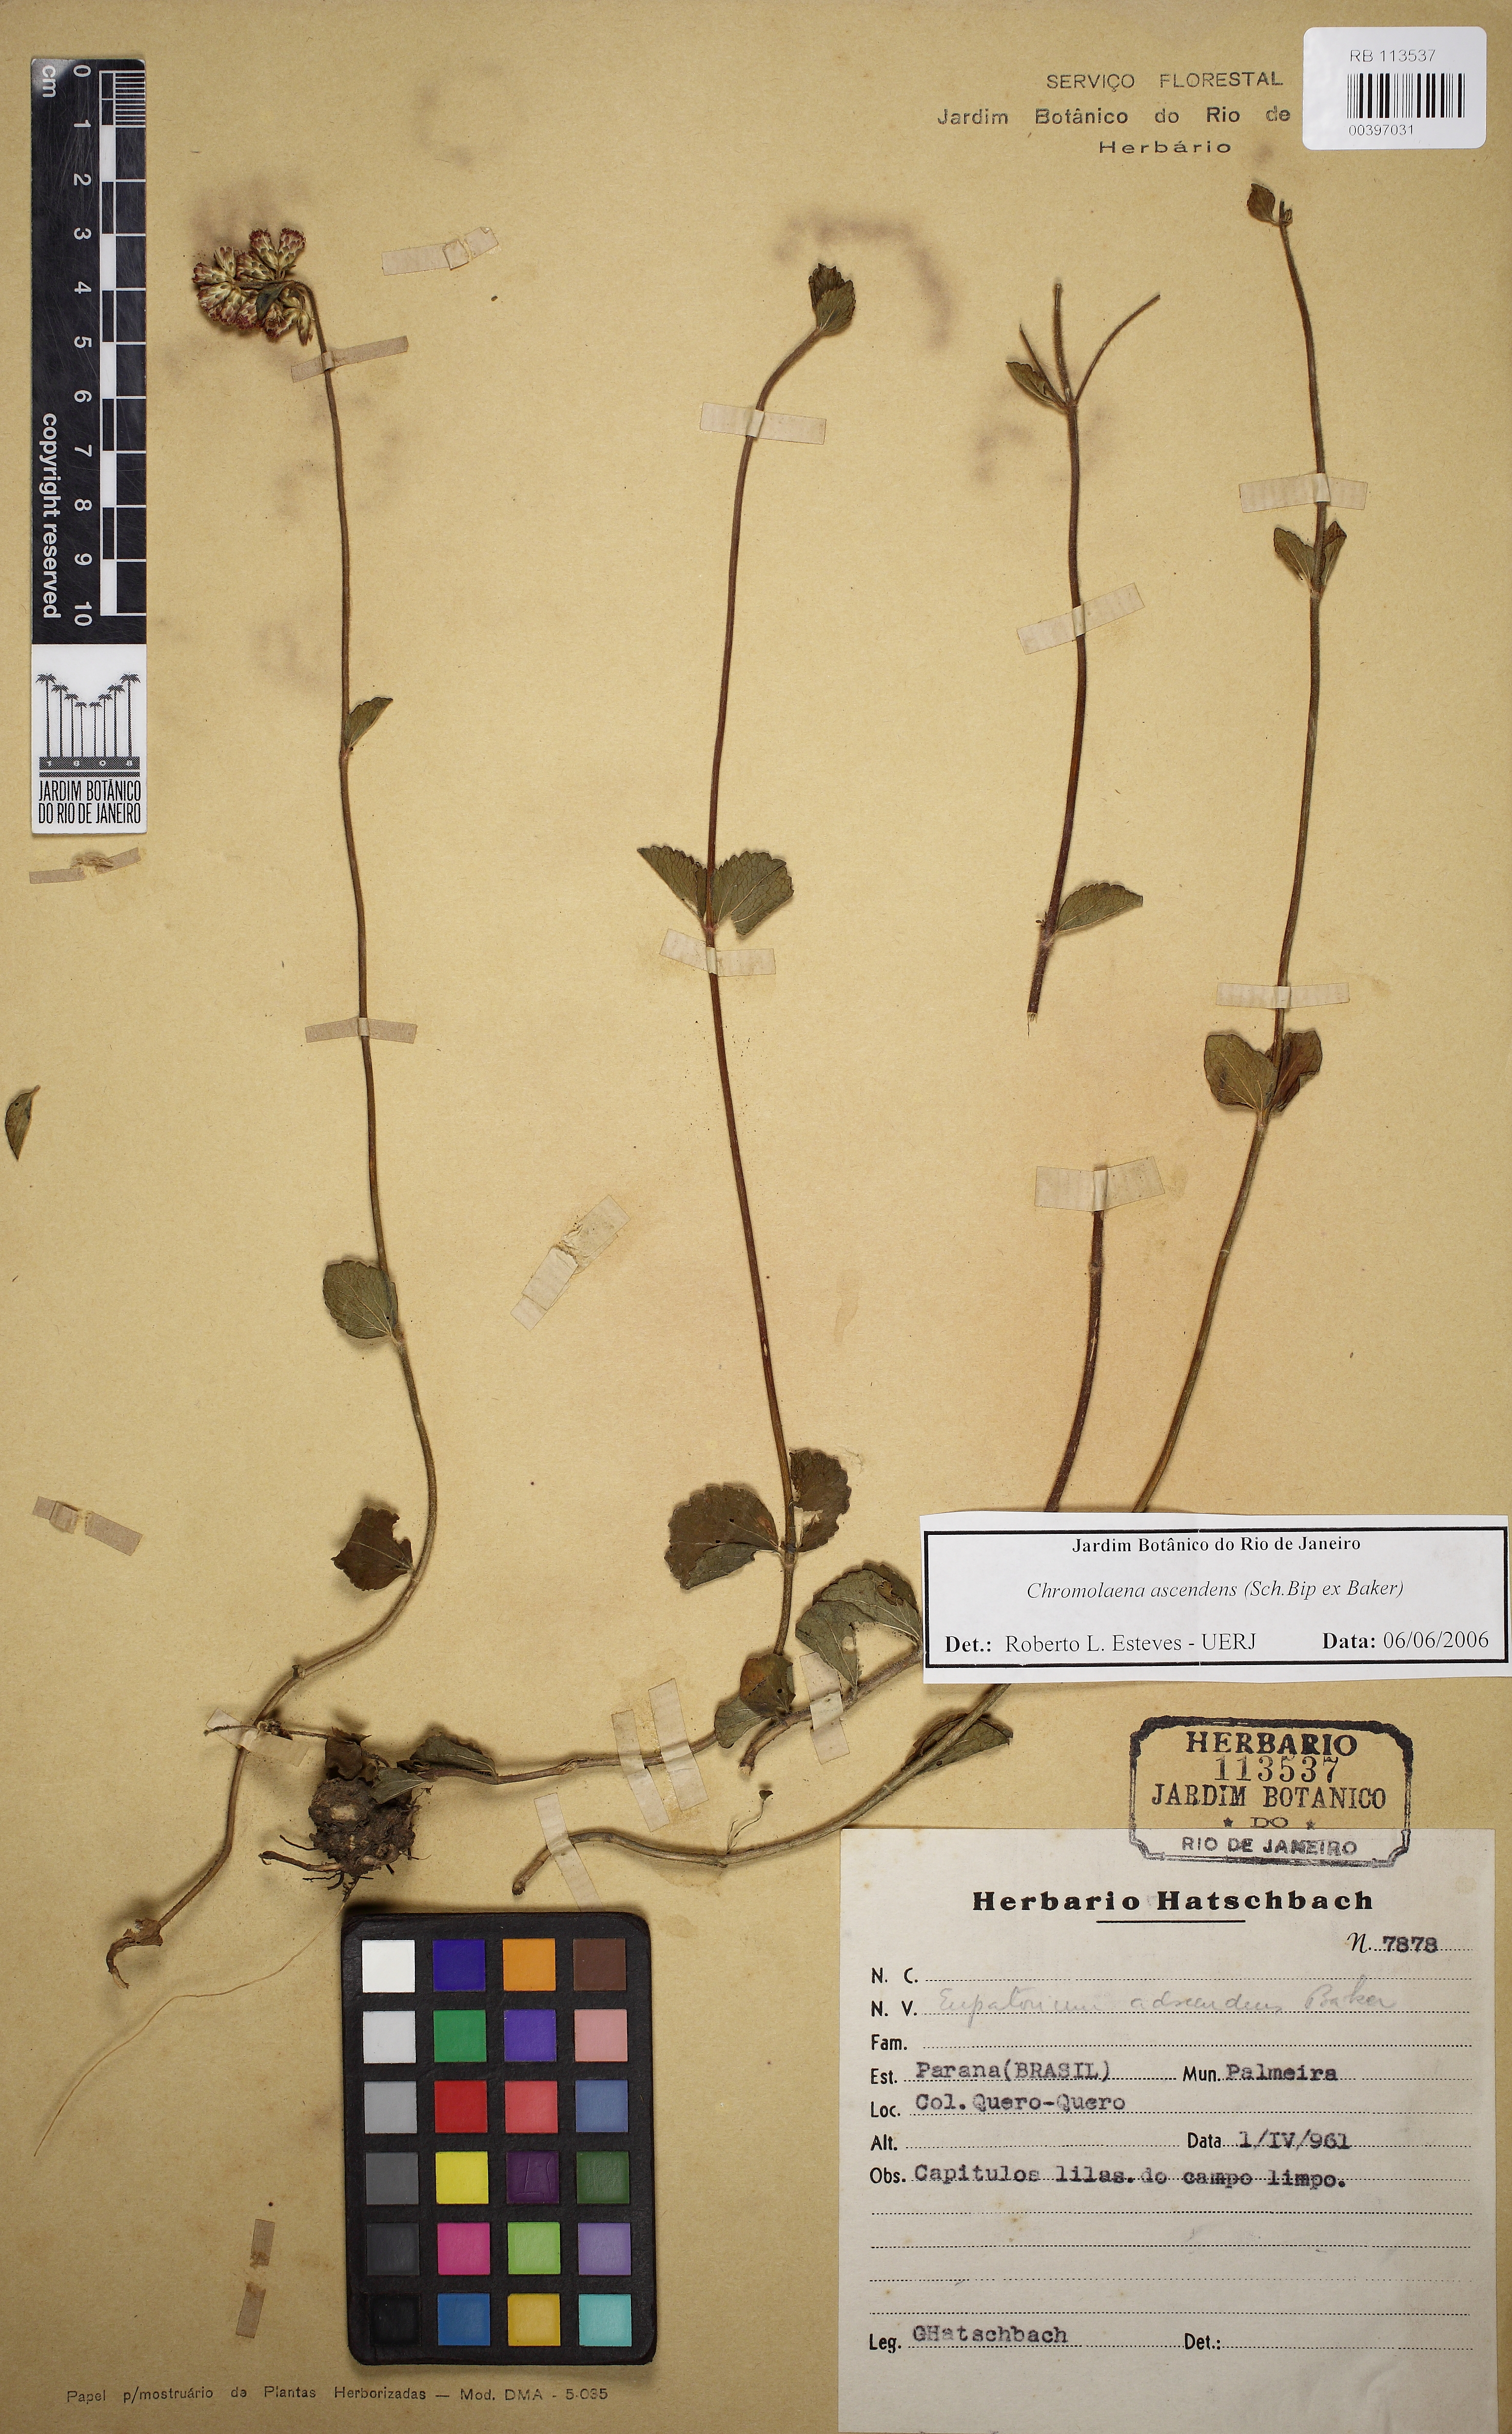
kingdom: Plantae
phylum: Tracheophyta
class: Magnoliopsida
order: Asterales
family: Asteraceae
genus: Chromolaena
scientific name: Chromolaena latisquamulosa
